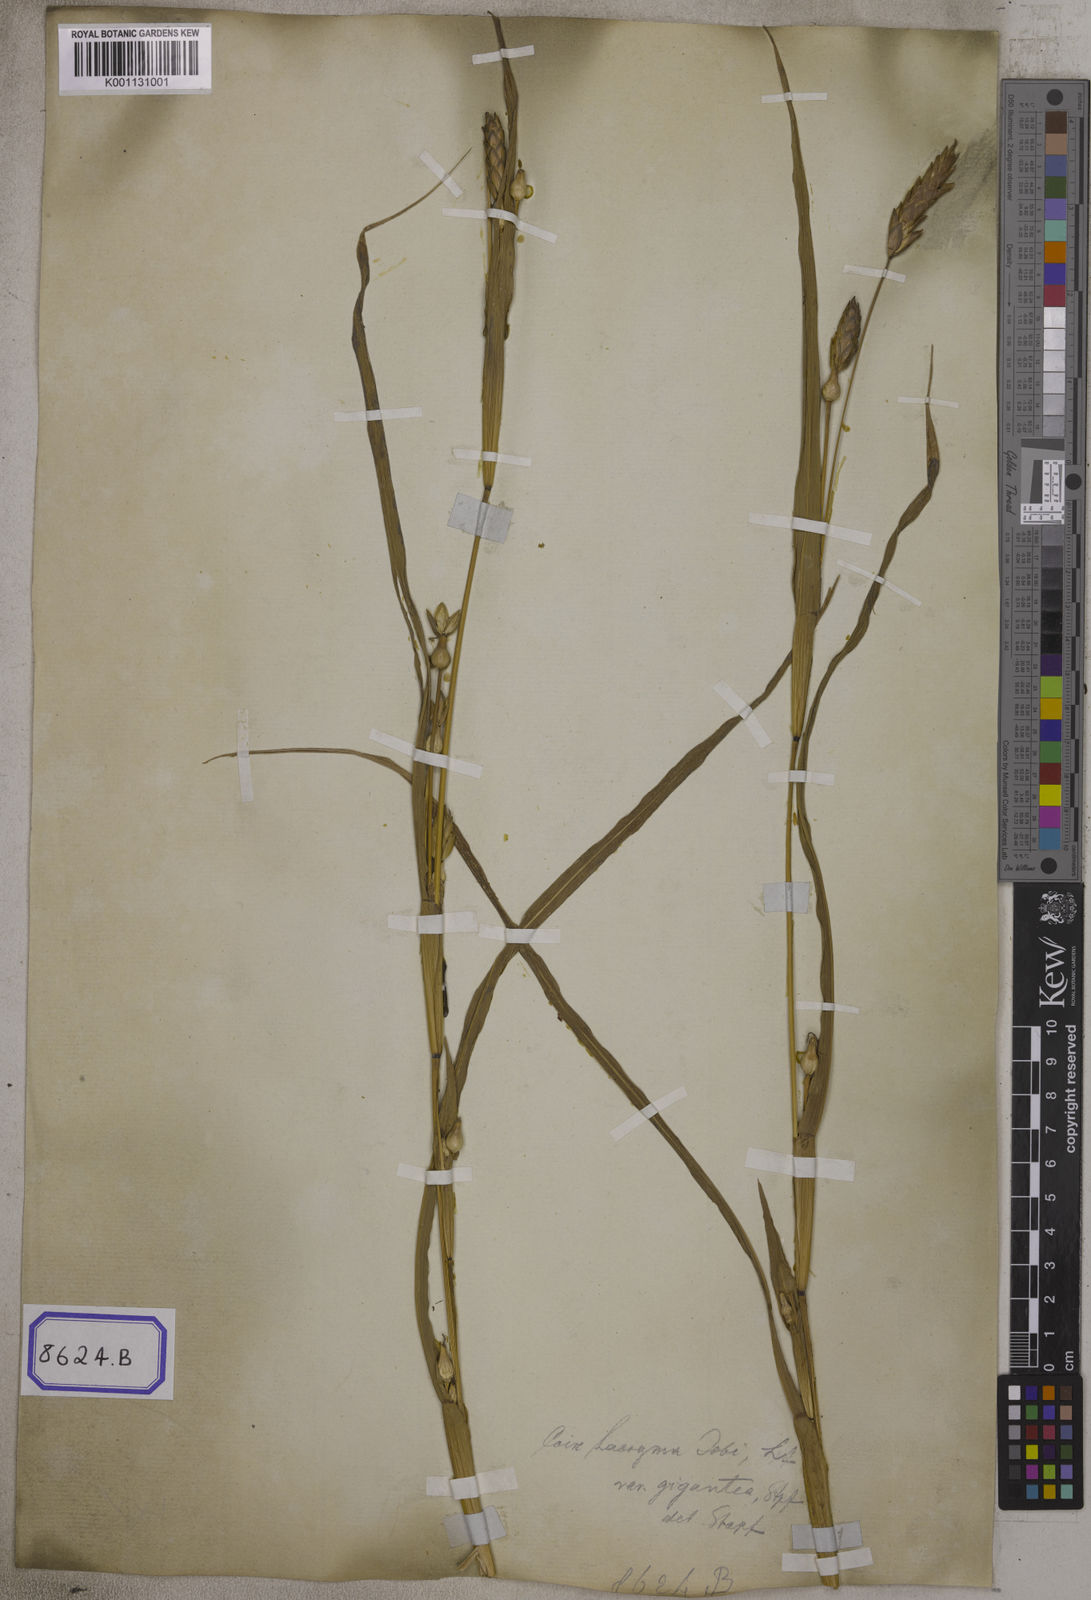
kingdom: Plantae
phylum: Tracheophyta
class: Liliopsida
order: Poales
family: Poaceae
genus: Polytoca
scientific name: Polytoca gigantea
